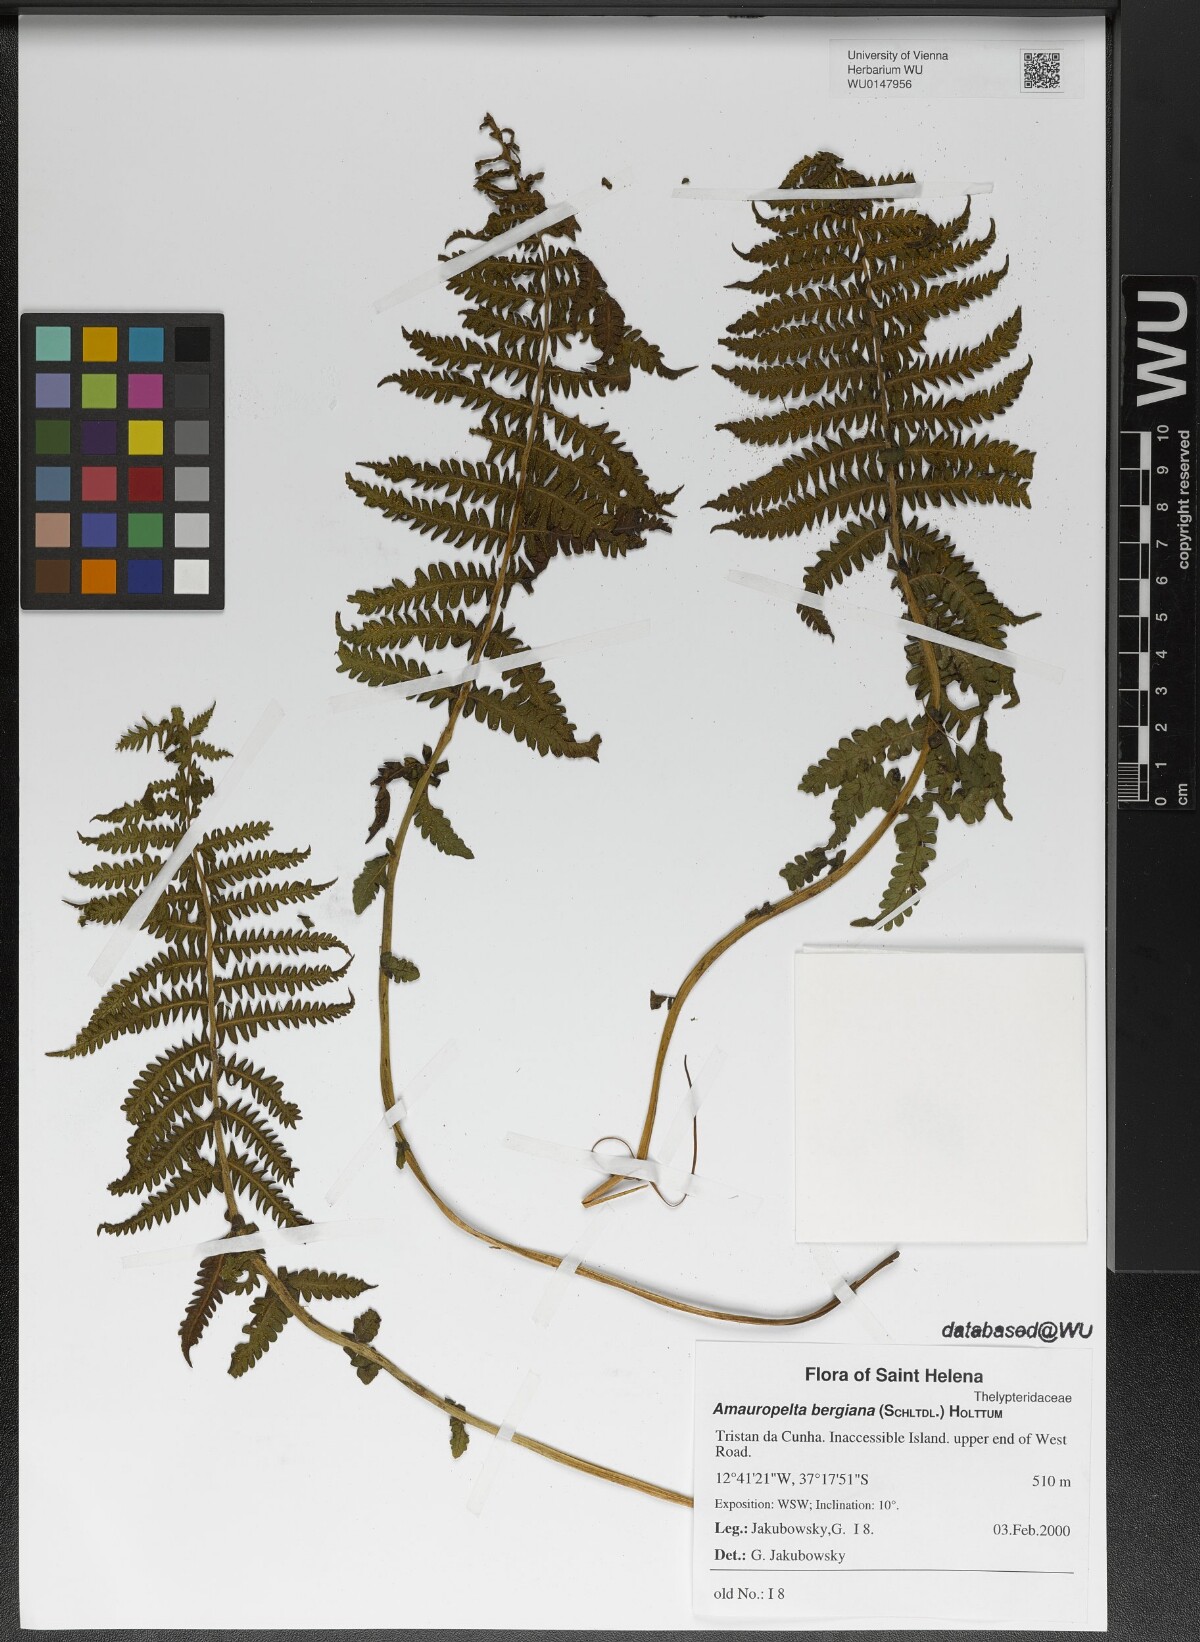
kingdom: Plantae
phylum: Tracheophyta
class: Polypodiopsida
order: Polypodiales
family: Thelypteridaceae
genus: Amauropelta
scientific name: Amauropelta bergiana
